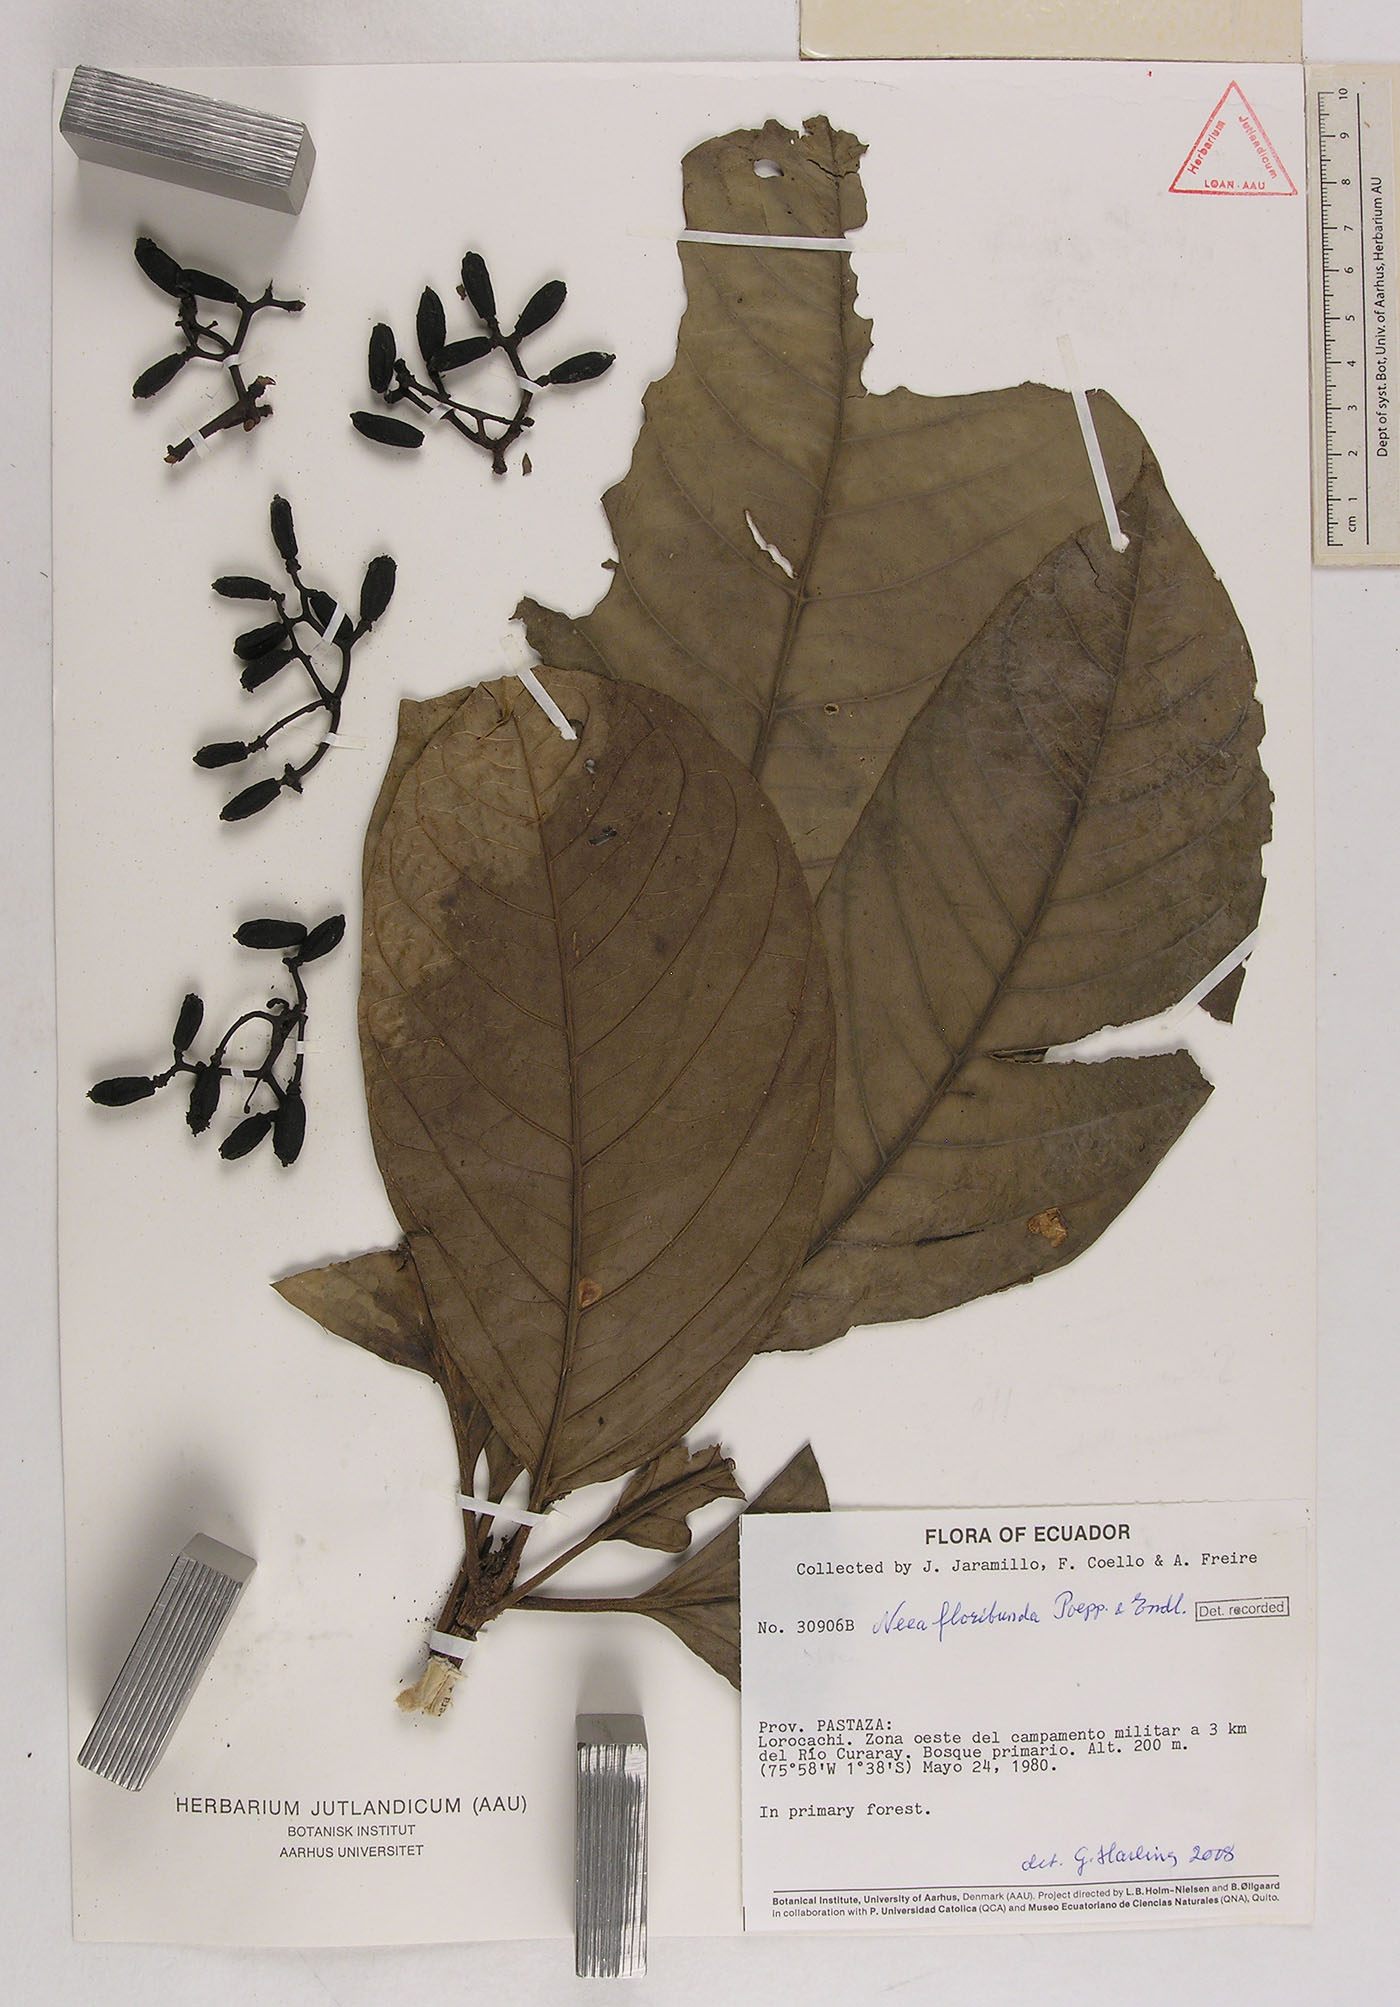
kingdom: Plantae
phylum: Tracheophyta
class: Magnoliopsida
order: Caryophyllales
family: Nyctaginaceae
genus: Neea
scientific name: Neea floribunda
